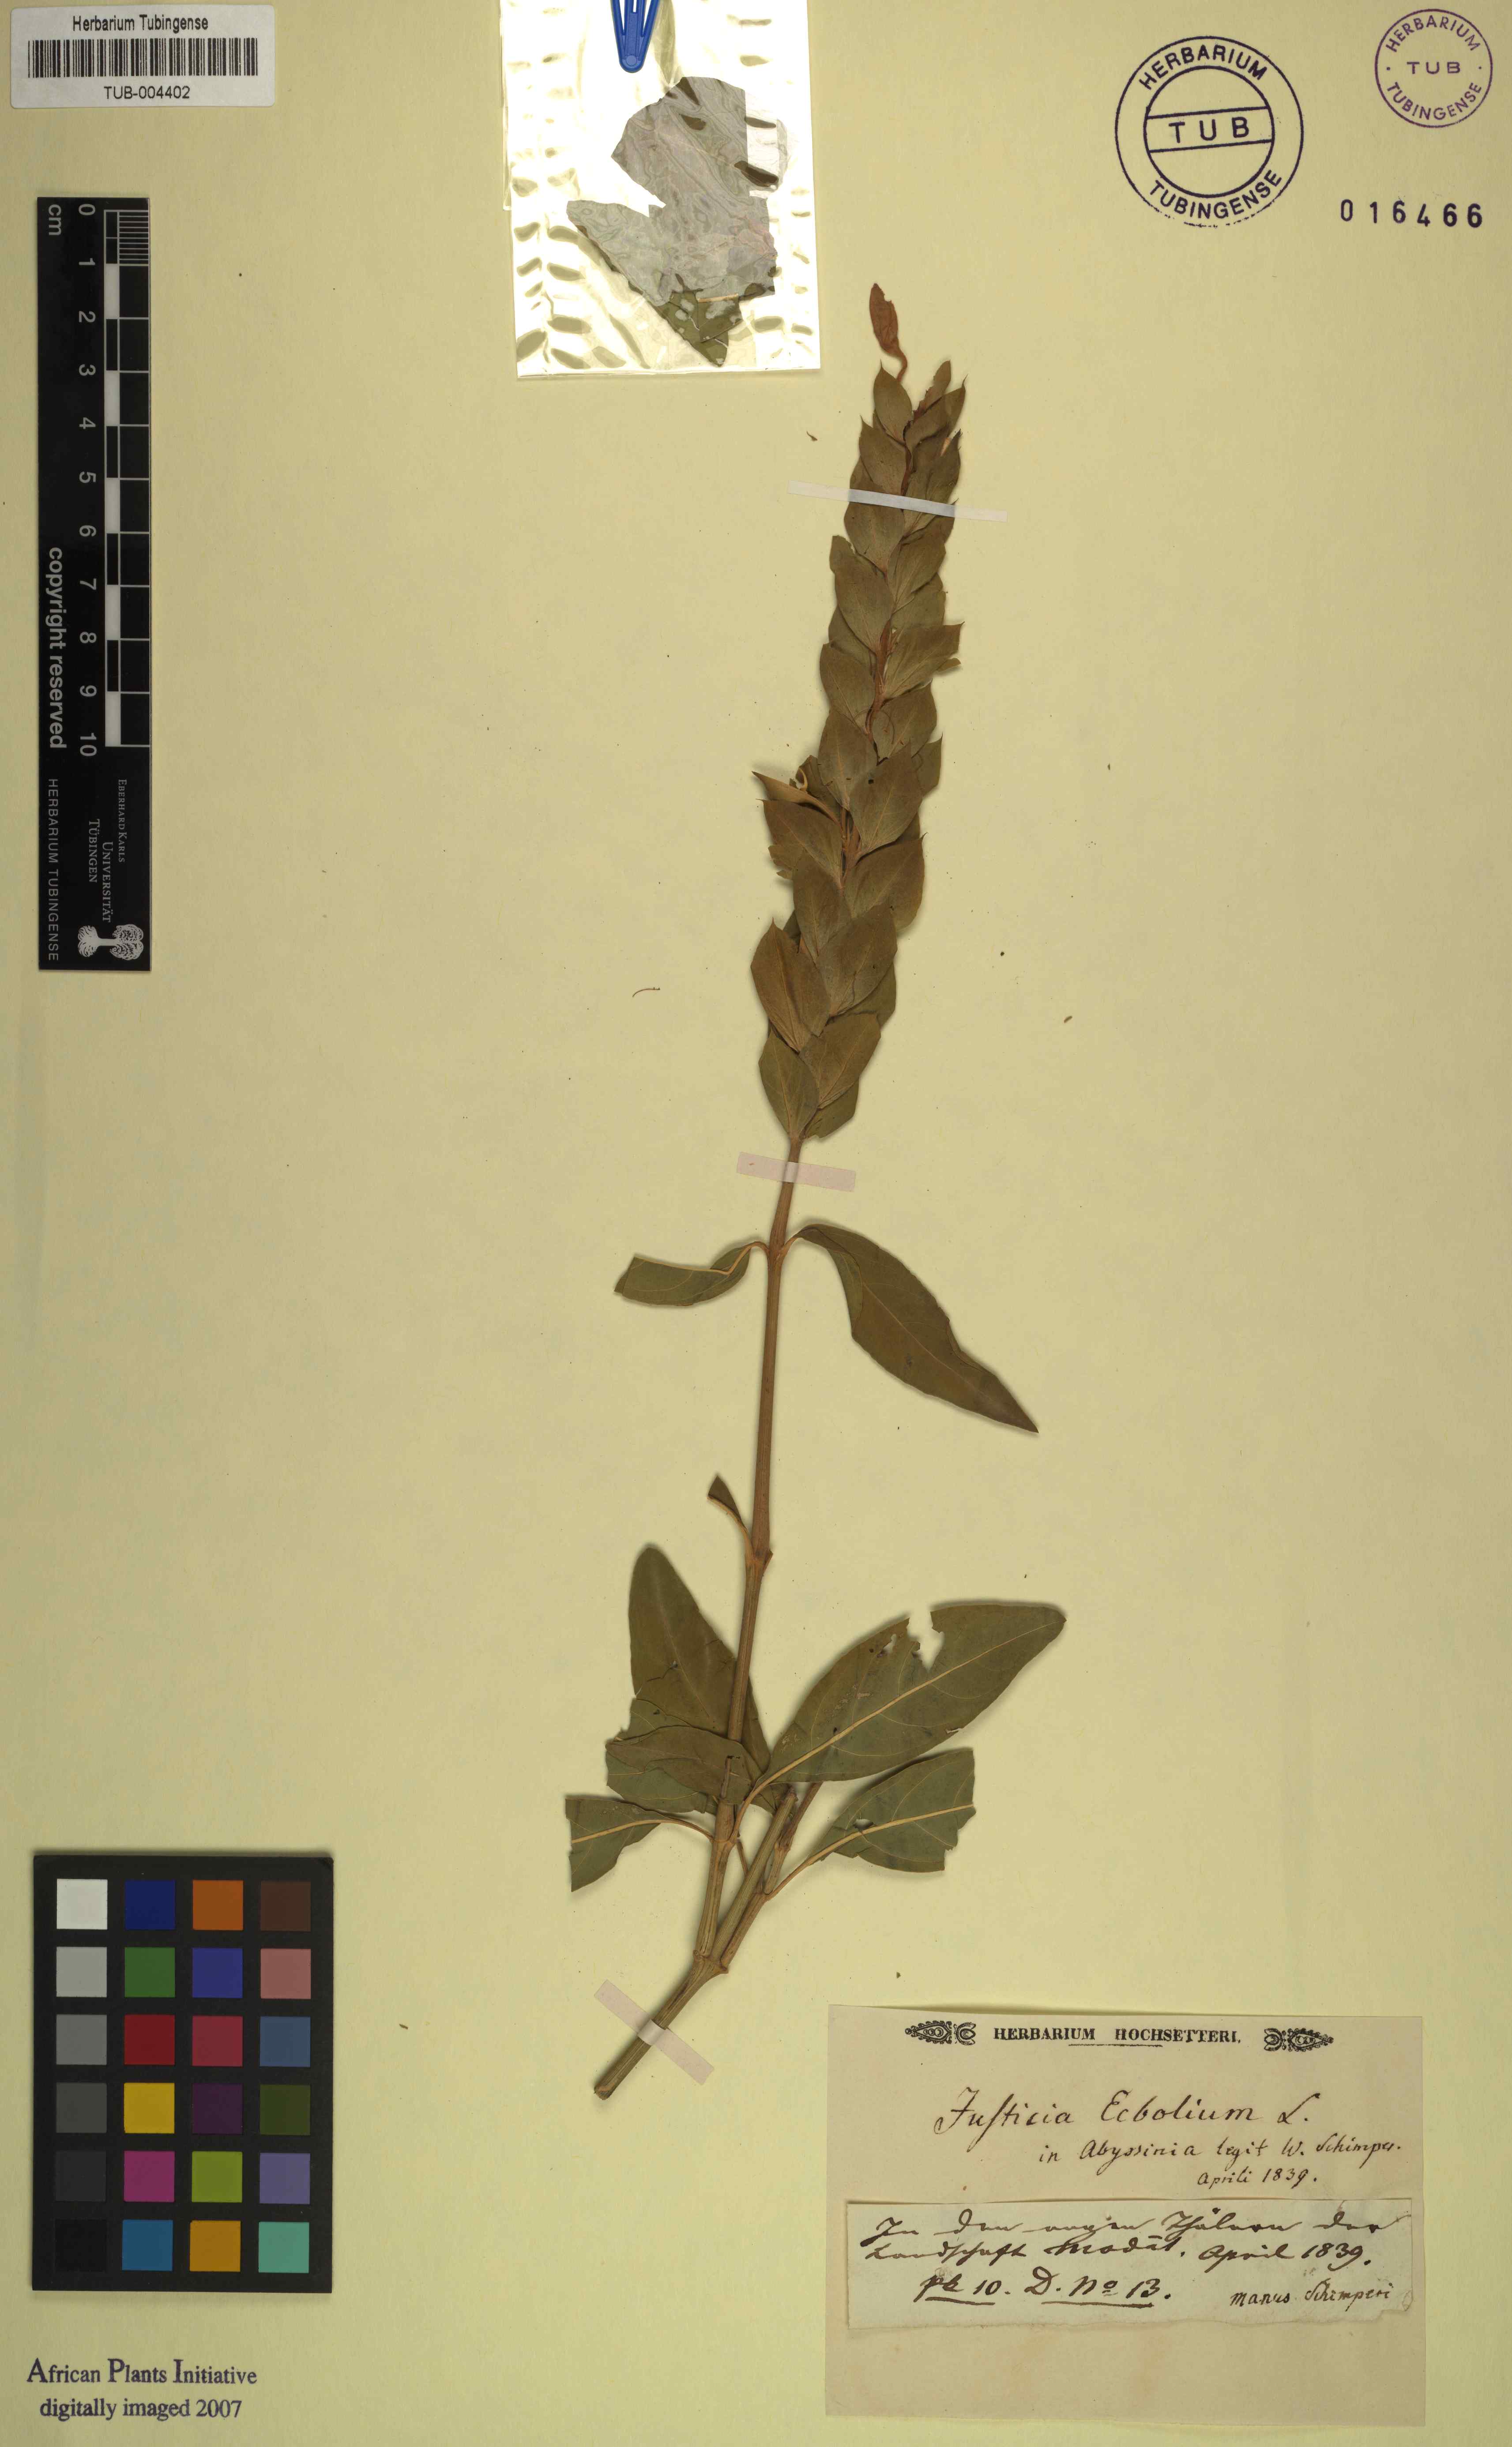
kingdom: Plantae
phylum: Tracheophyta
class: Magnoliopsida
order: Lamiales
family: Acanthaceae
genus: Ecbolium
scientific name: Ecbolium ligustrinum
